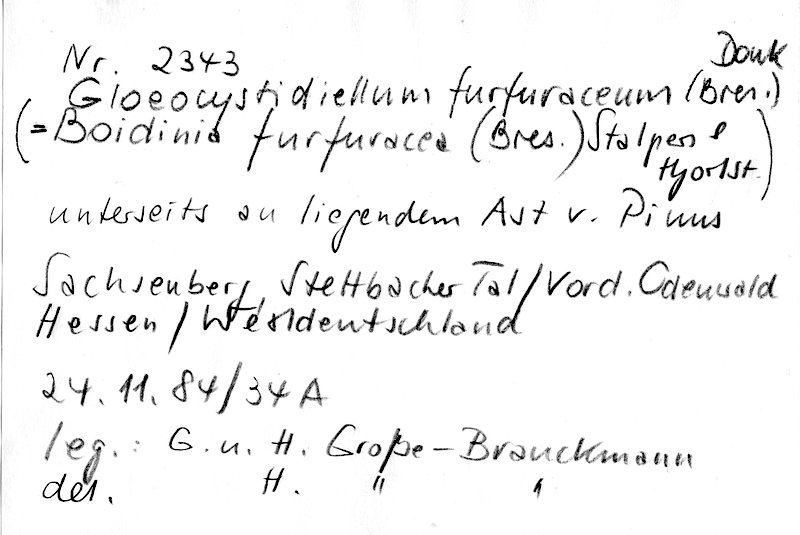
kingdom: Plantae
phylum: Tracheophyta
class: Pinopsida
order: Pinales
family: Pinaceae
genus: Pinus
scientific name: Pinus
